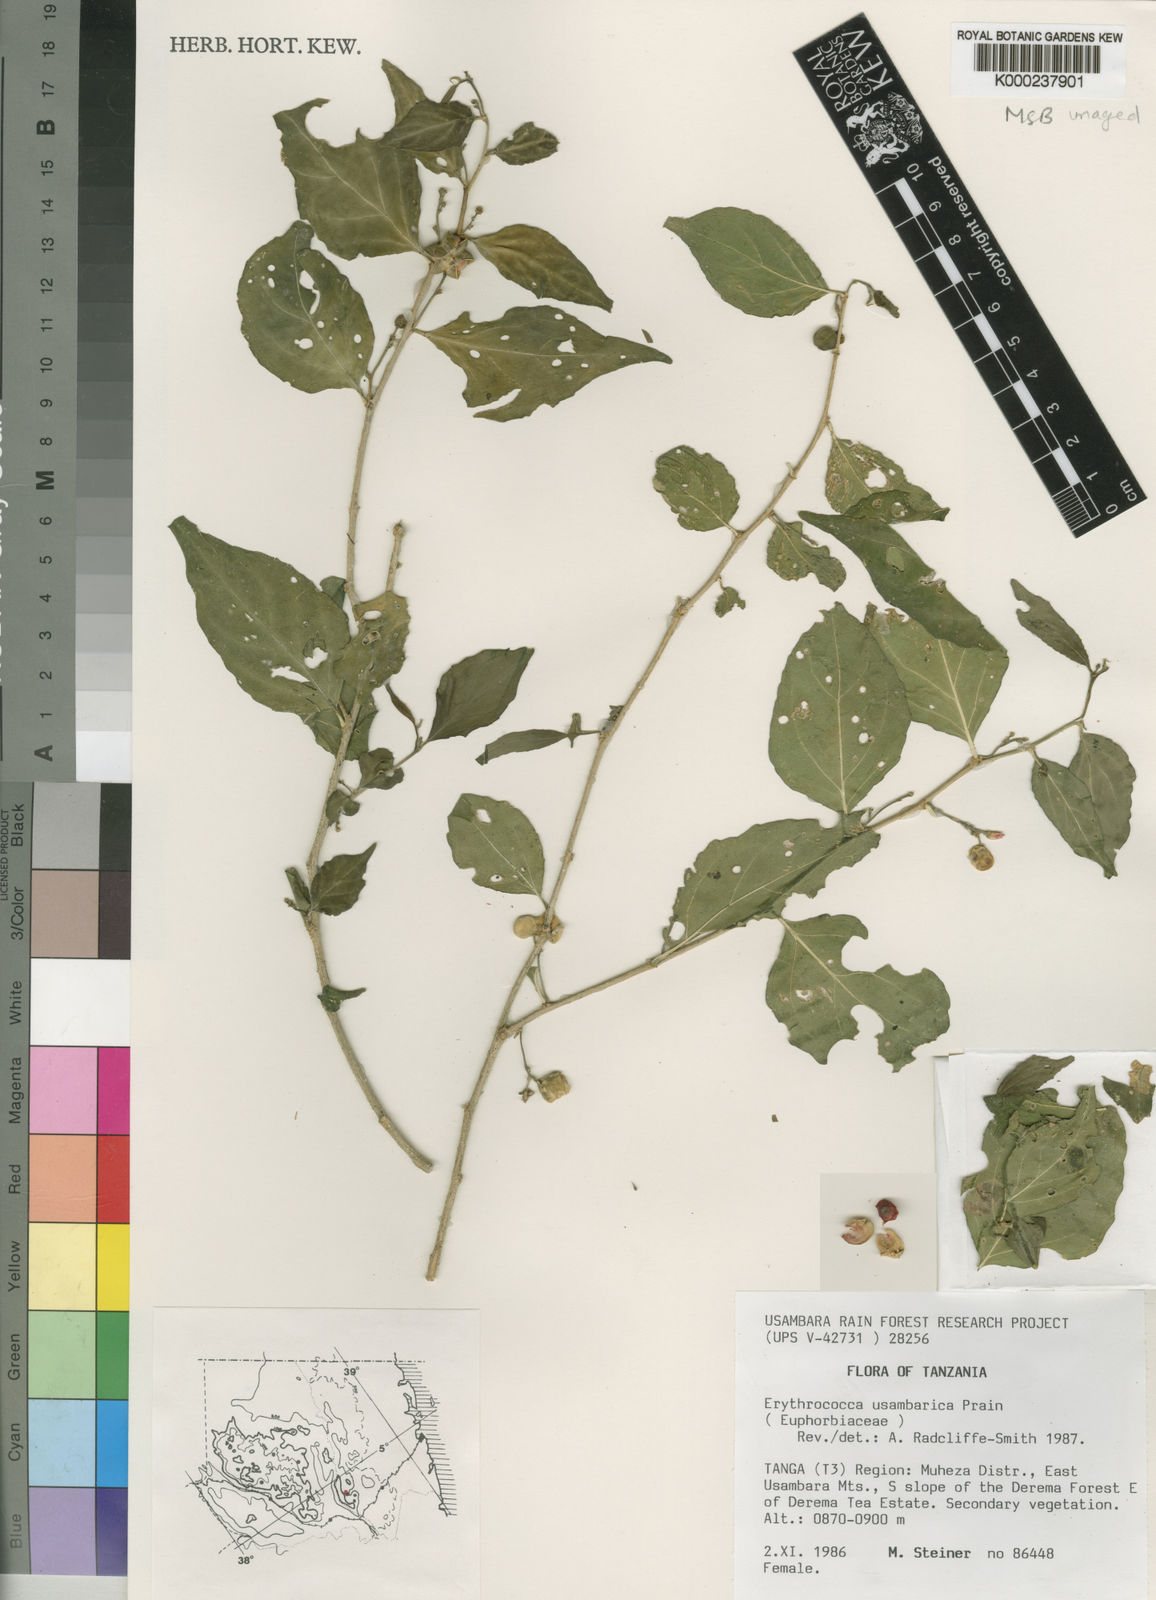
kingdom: Plantae
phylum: Tracheophyta
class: Magnoliopsida
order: Malpighiales
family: Euphorbiaceae
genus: Erythrococca
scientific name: Erythrococca usambarica
